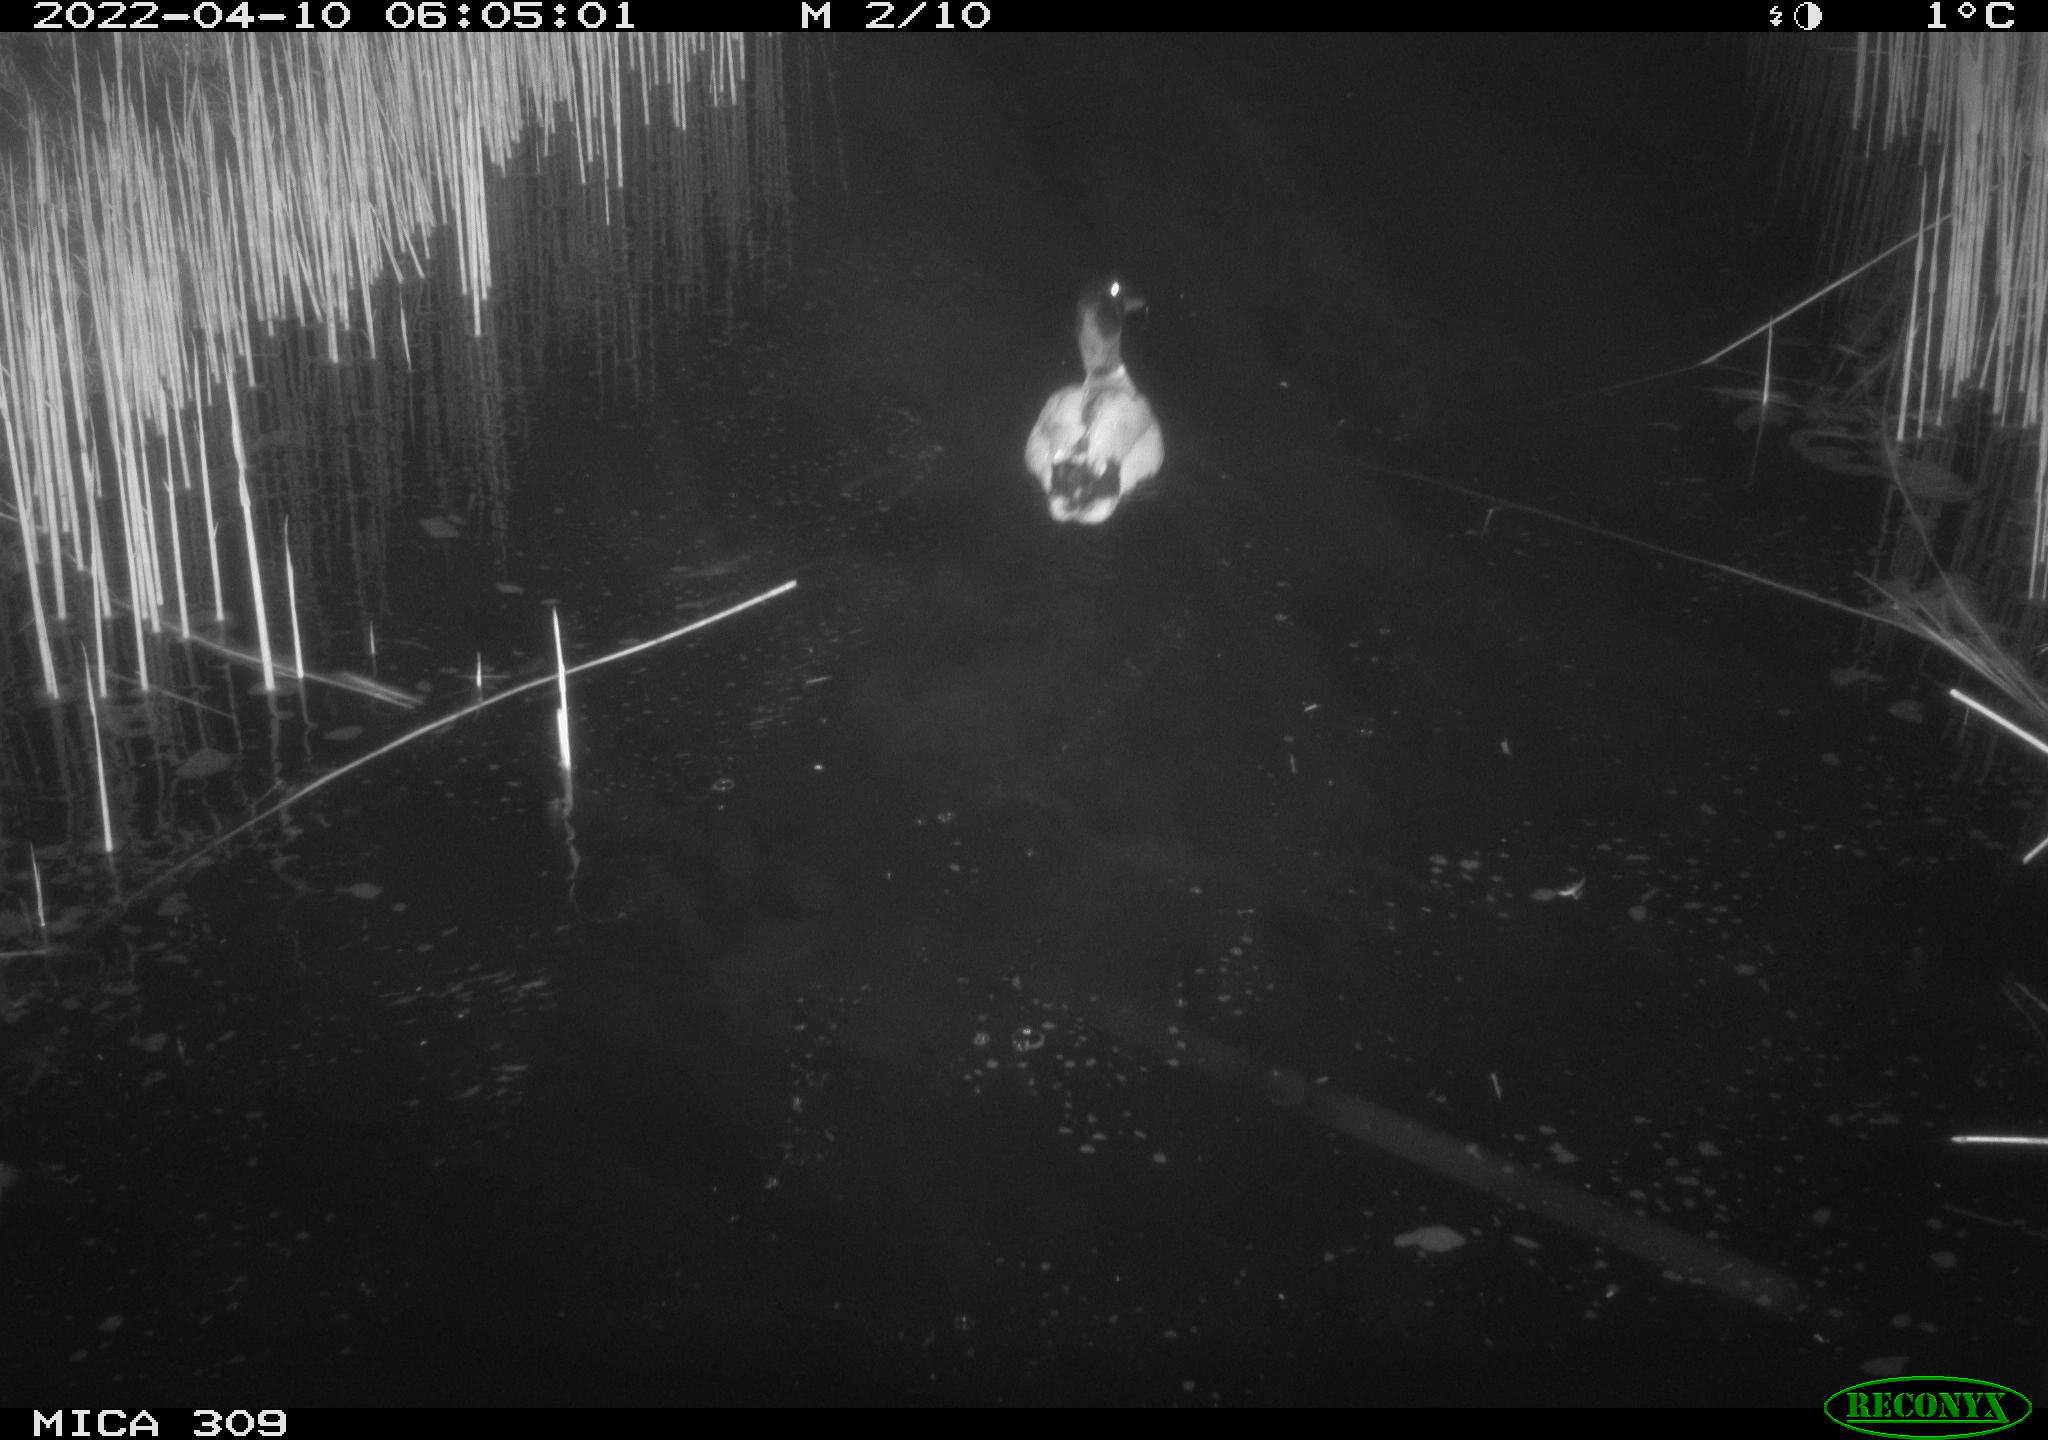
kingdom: Animalia
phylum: Chordata
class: Aves
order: Anseriformes
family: Anatidae
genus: Mareca
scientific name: Mareca strepera
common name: Gadwall
